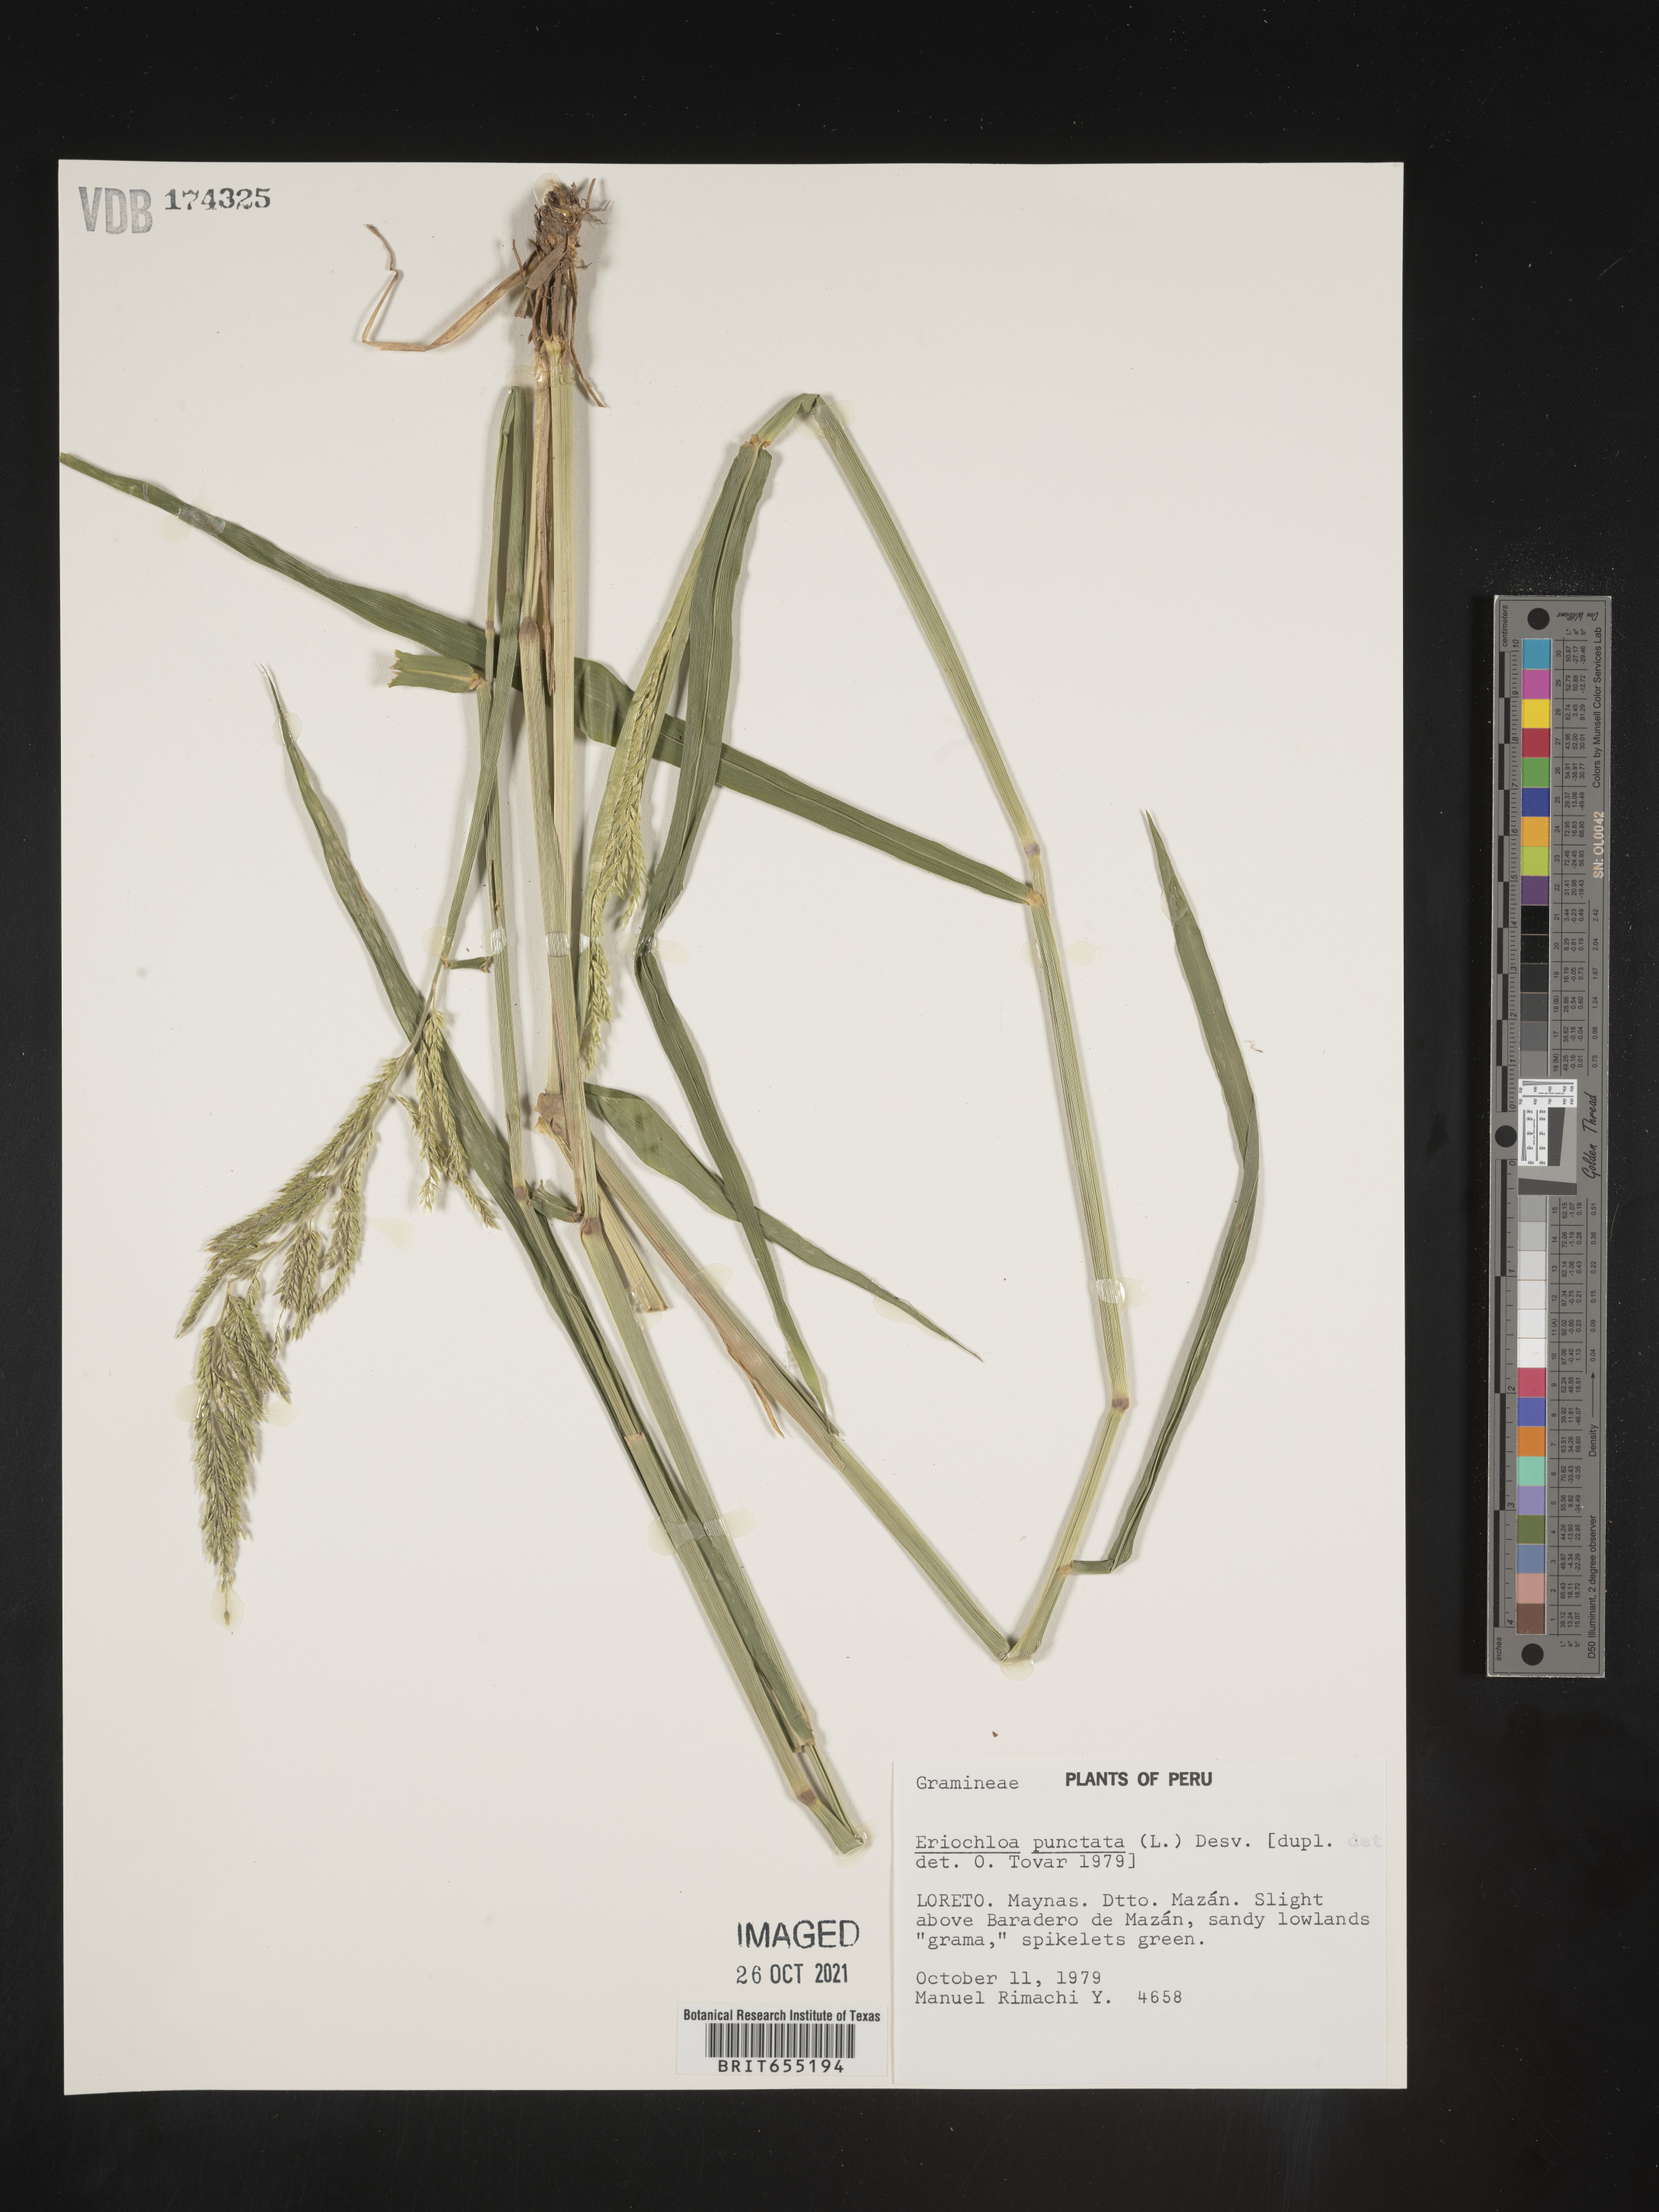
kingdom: Plantae
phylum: Tracheophyta
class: Liliopsida
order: Poales
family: Poaceae
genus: Eriochloa
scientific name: Eriochloa
